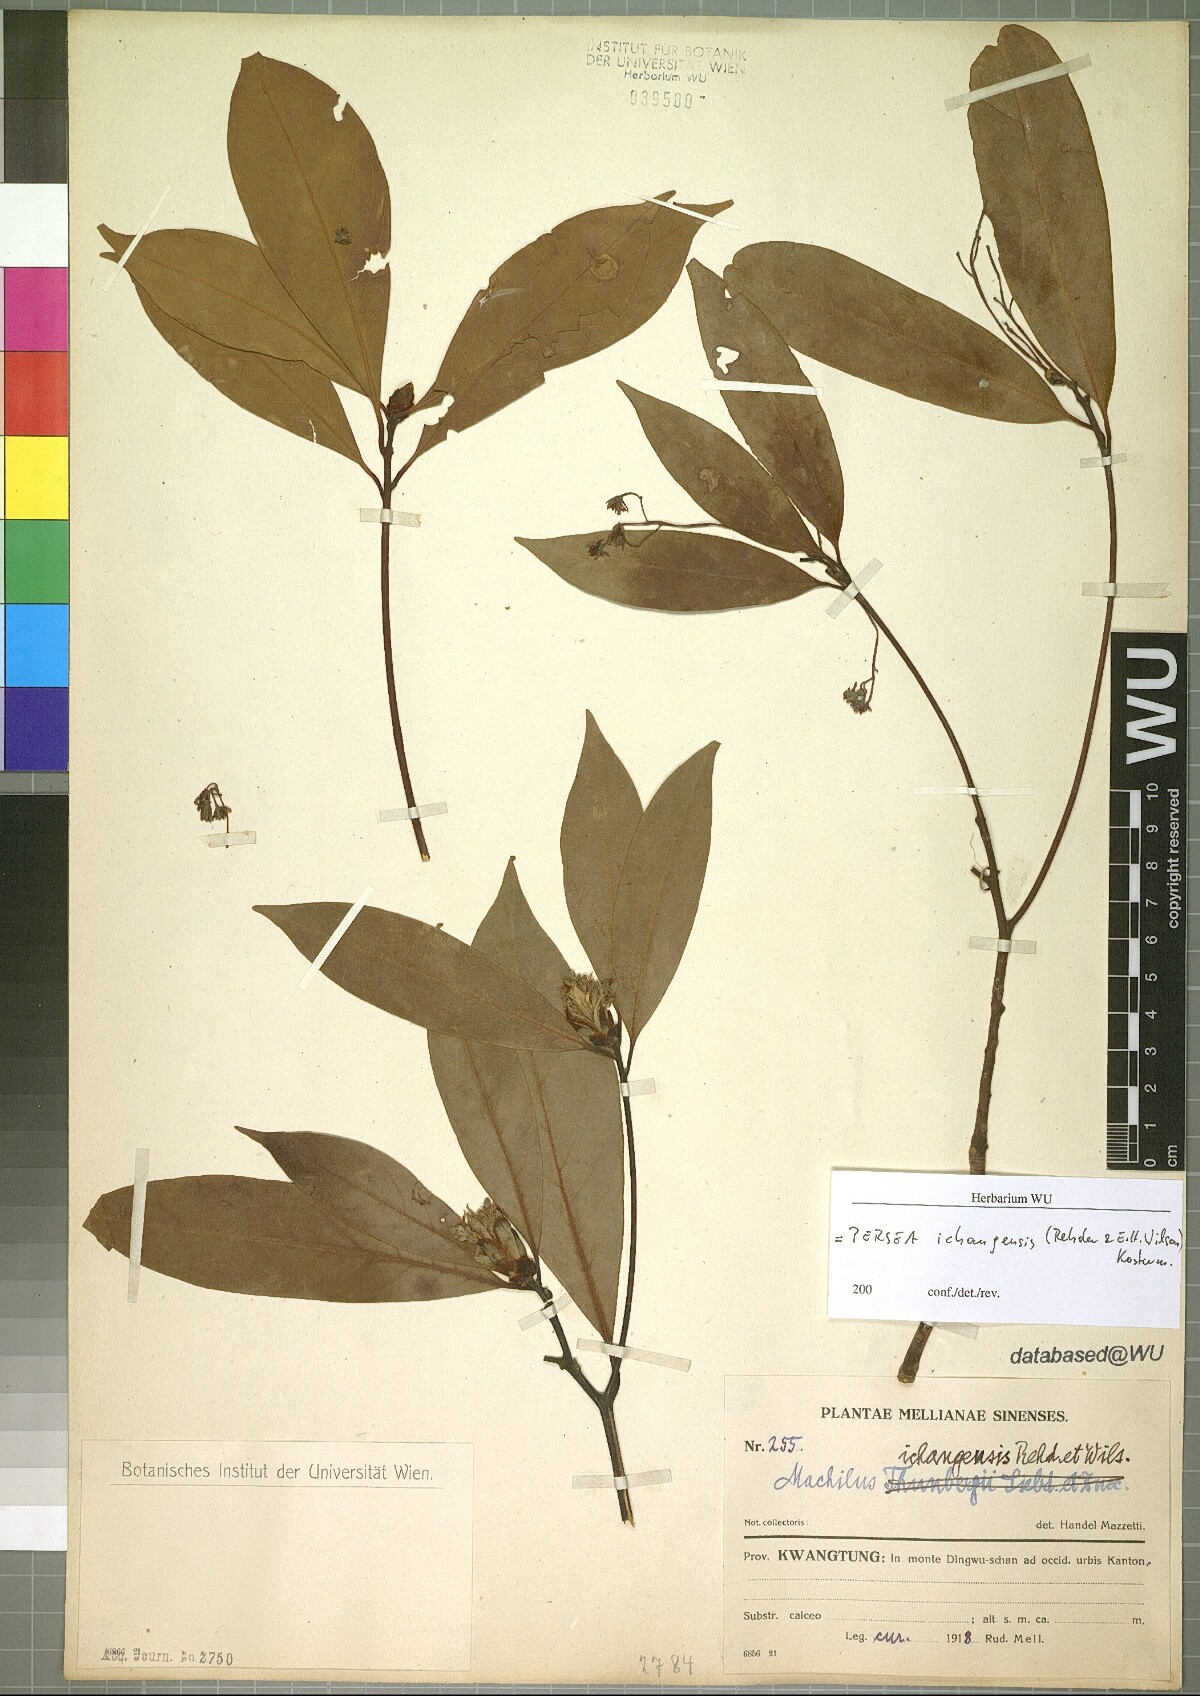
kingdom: Plantae
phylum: Tracheophyta
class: Magnoliopsida
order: Laurales
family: Lauraceae
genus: Machilus
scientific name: Machilus ichangensis
